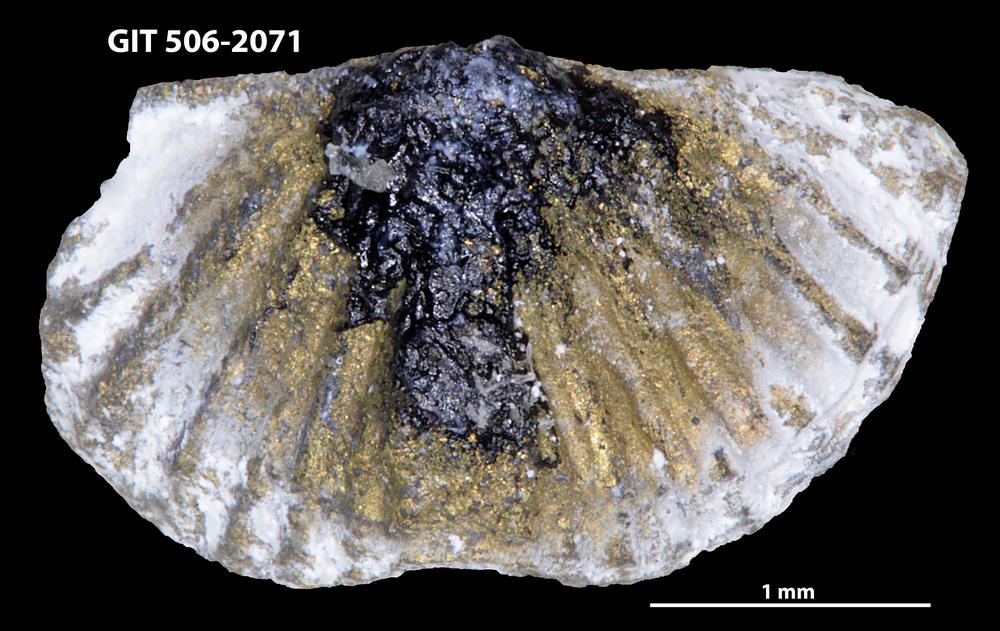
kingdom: Animalia
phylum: Brachiopoda
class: Rhynchonellata
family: Skenidiidae
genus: Skenidioides
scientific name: Skenidioides scoliodus
